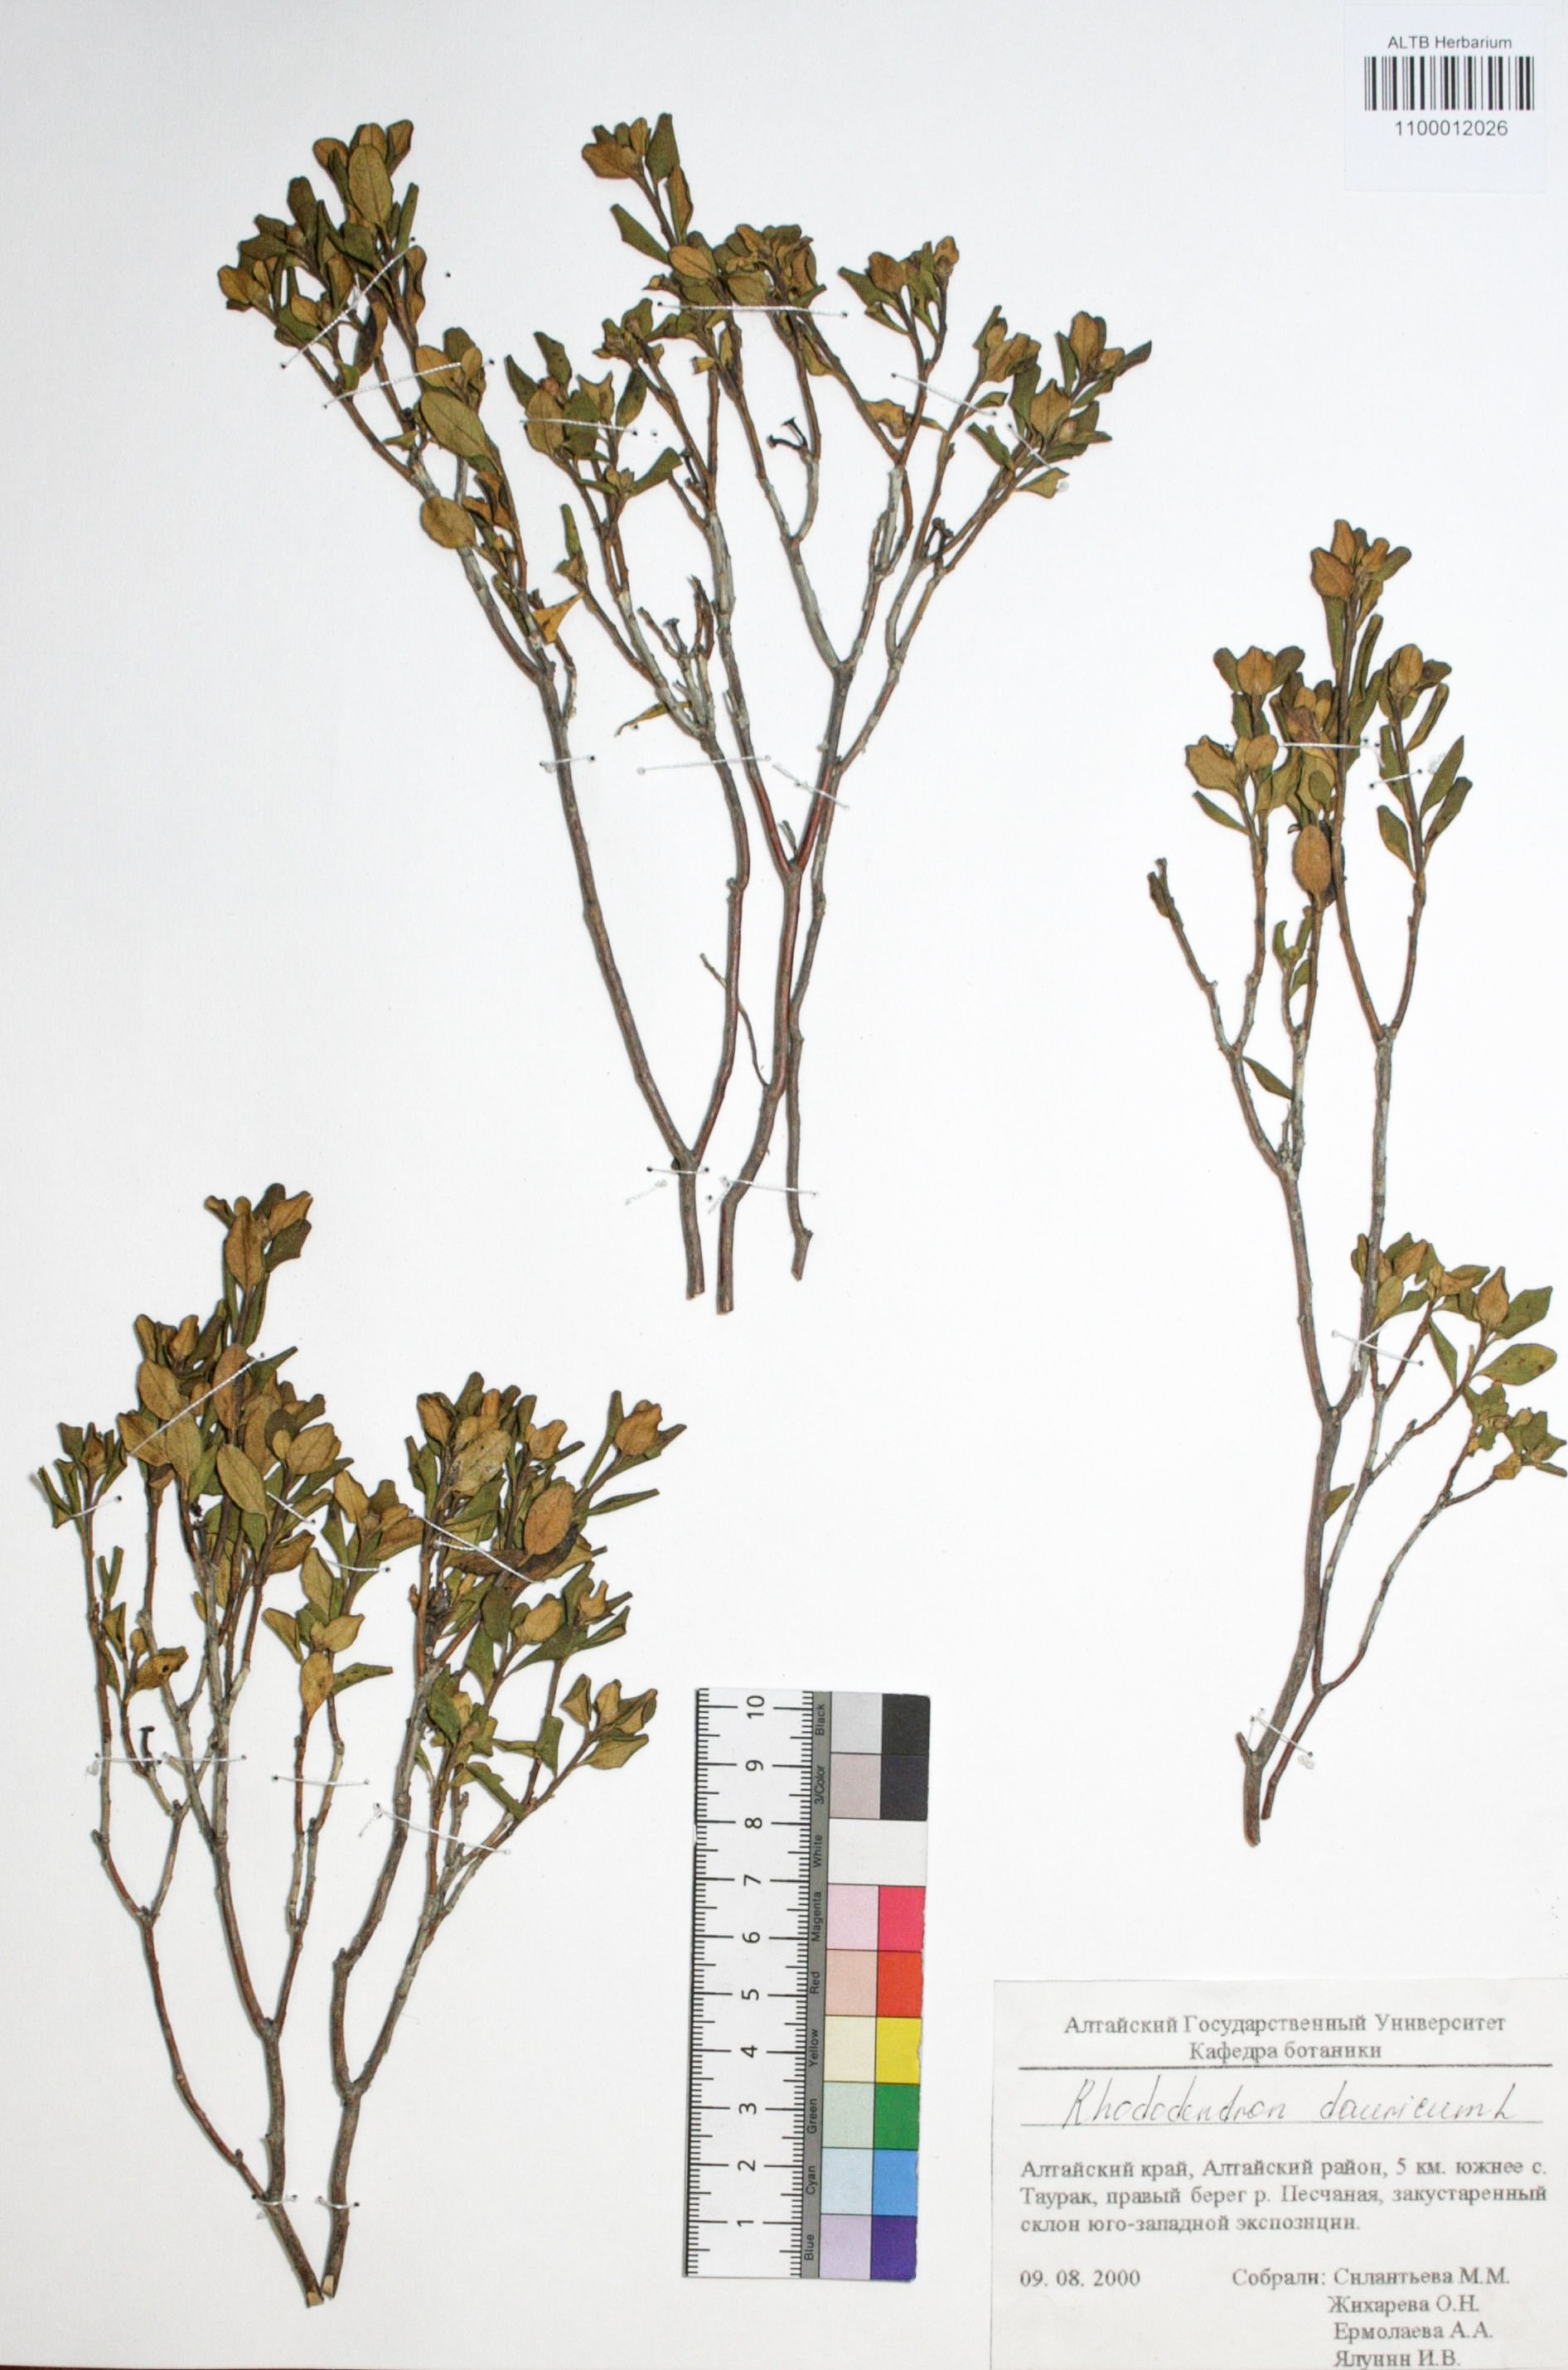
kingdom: Plantae
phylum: Tracheophyta
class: Magnoliopsida
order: Ericales
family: Ericaceae
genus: Rhododendron
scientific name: Rhododendron dahuricum
